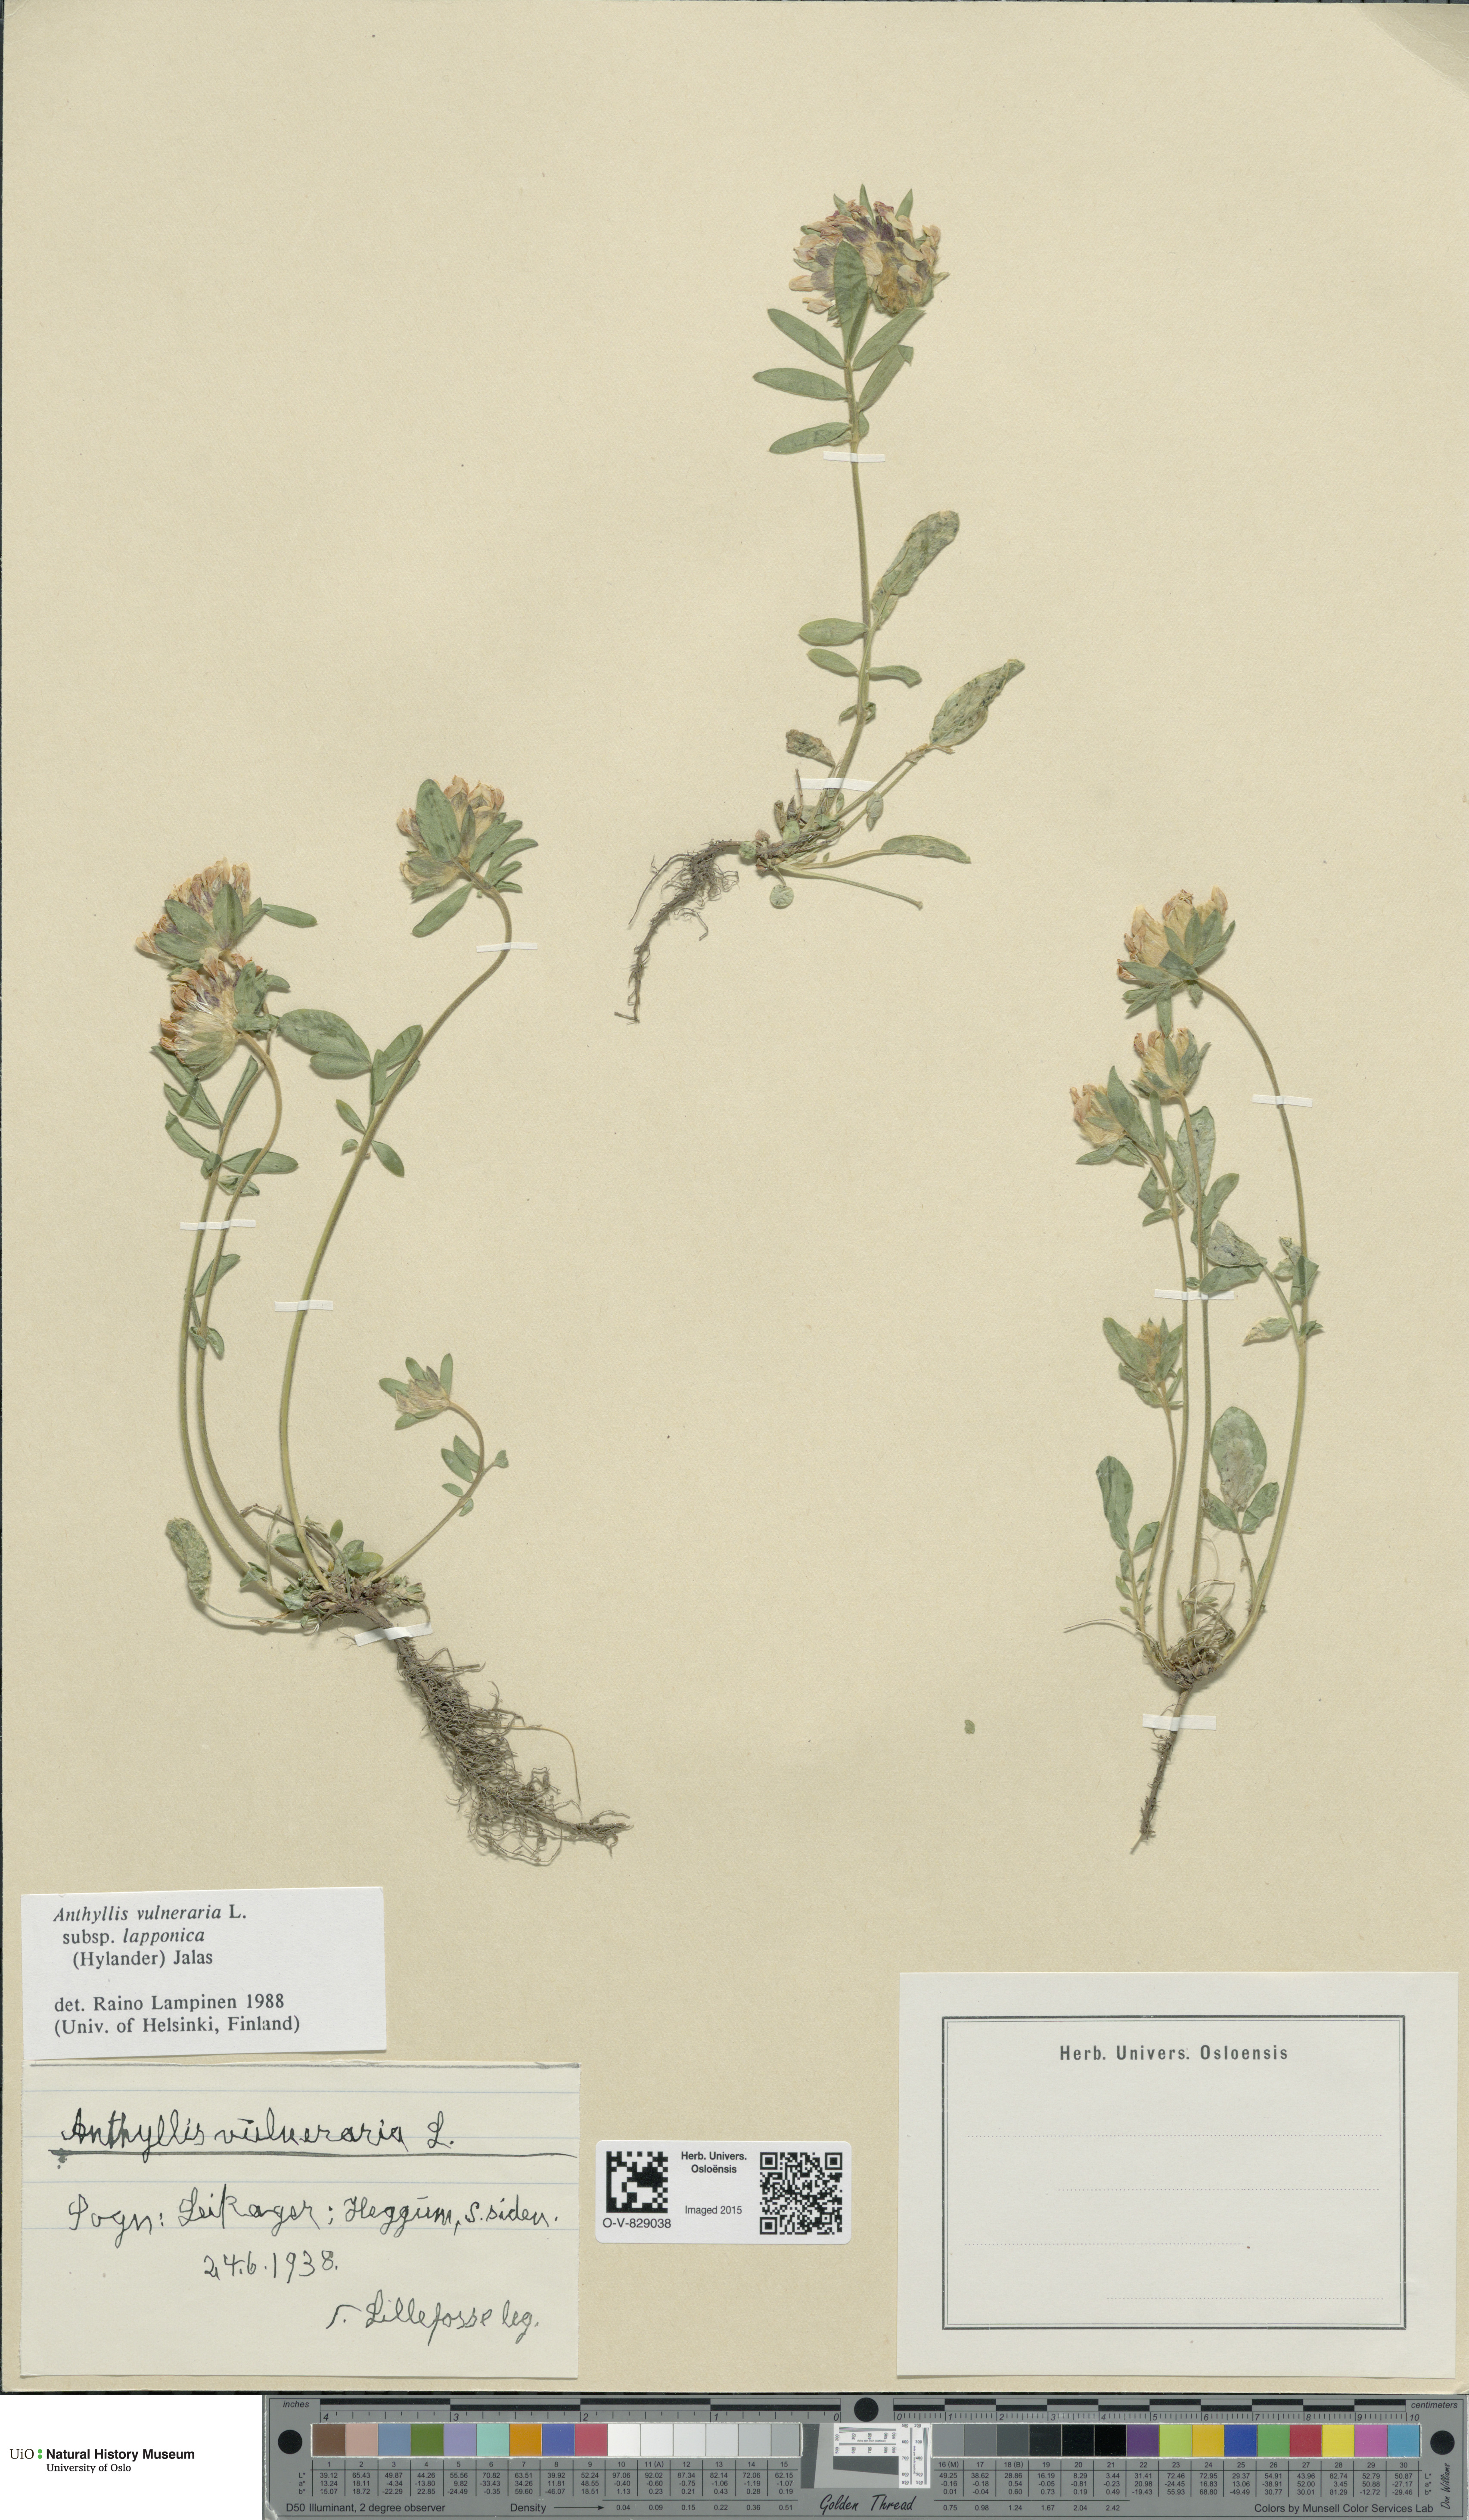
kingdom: Plantae
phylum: Tracheophyta
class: Magnoliopsida
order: Fabales
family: Fabaceae
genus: Anthyllis
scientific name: Anthyllis vulneraria
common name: Kidney vetch
